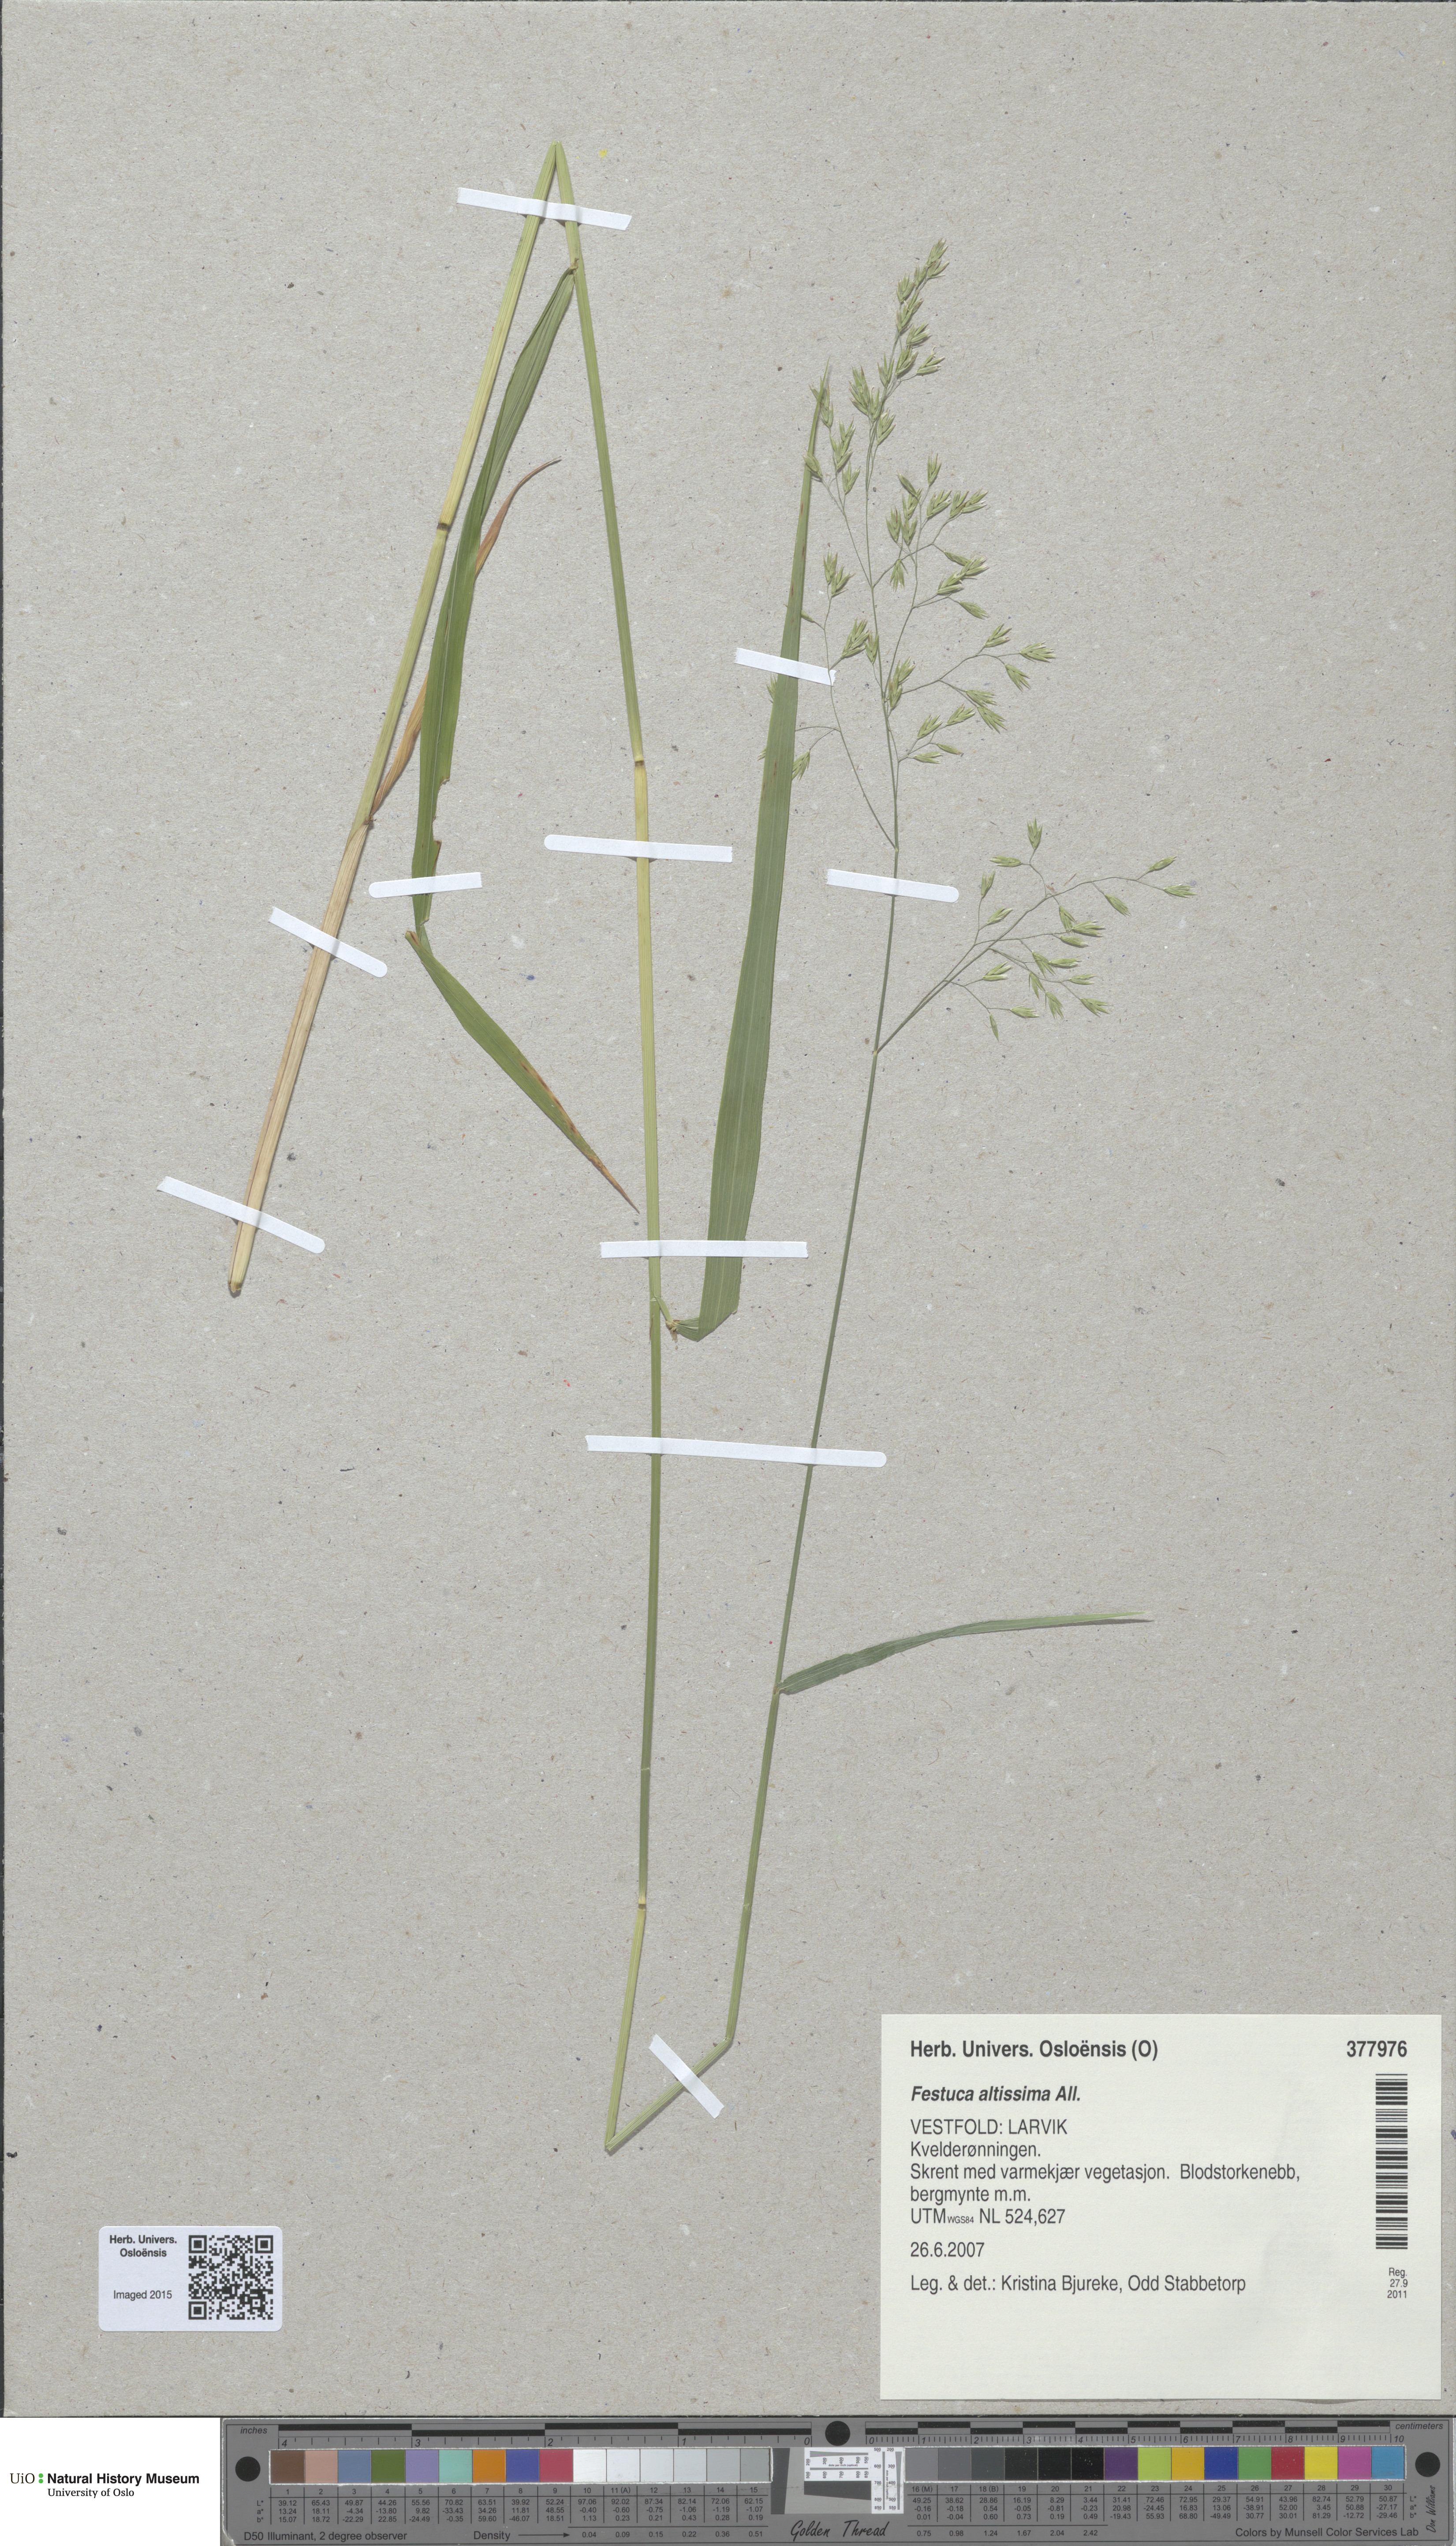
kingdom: Plantae
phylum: Tracheophyta
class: Liliopsida
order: Poales
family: Poaceae
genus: Festuca
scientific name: Festuca altissima
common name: Wood fescue
